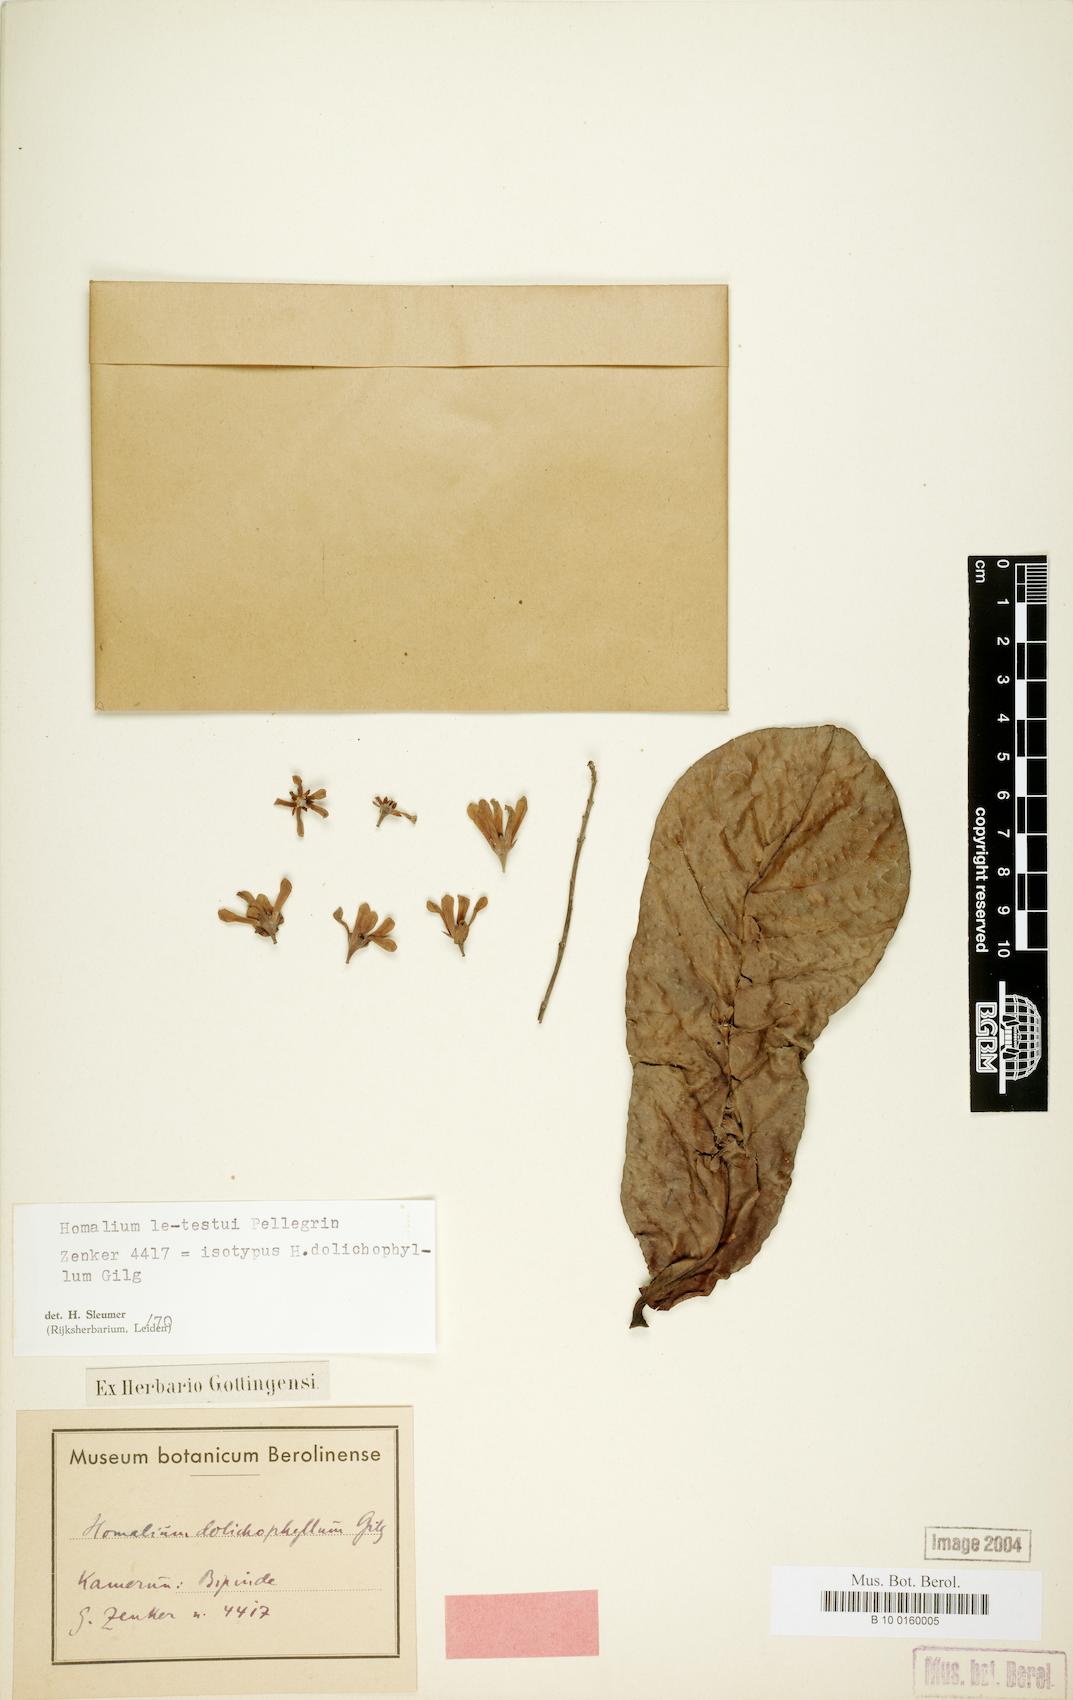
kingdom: Plantae
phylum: Tracheophyta
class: Magnoliopsida
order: Malpighiales
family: Salicaceae
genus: Homalium
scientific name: Homalium letestui
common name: African homalium
